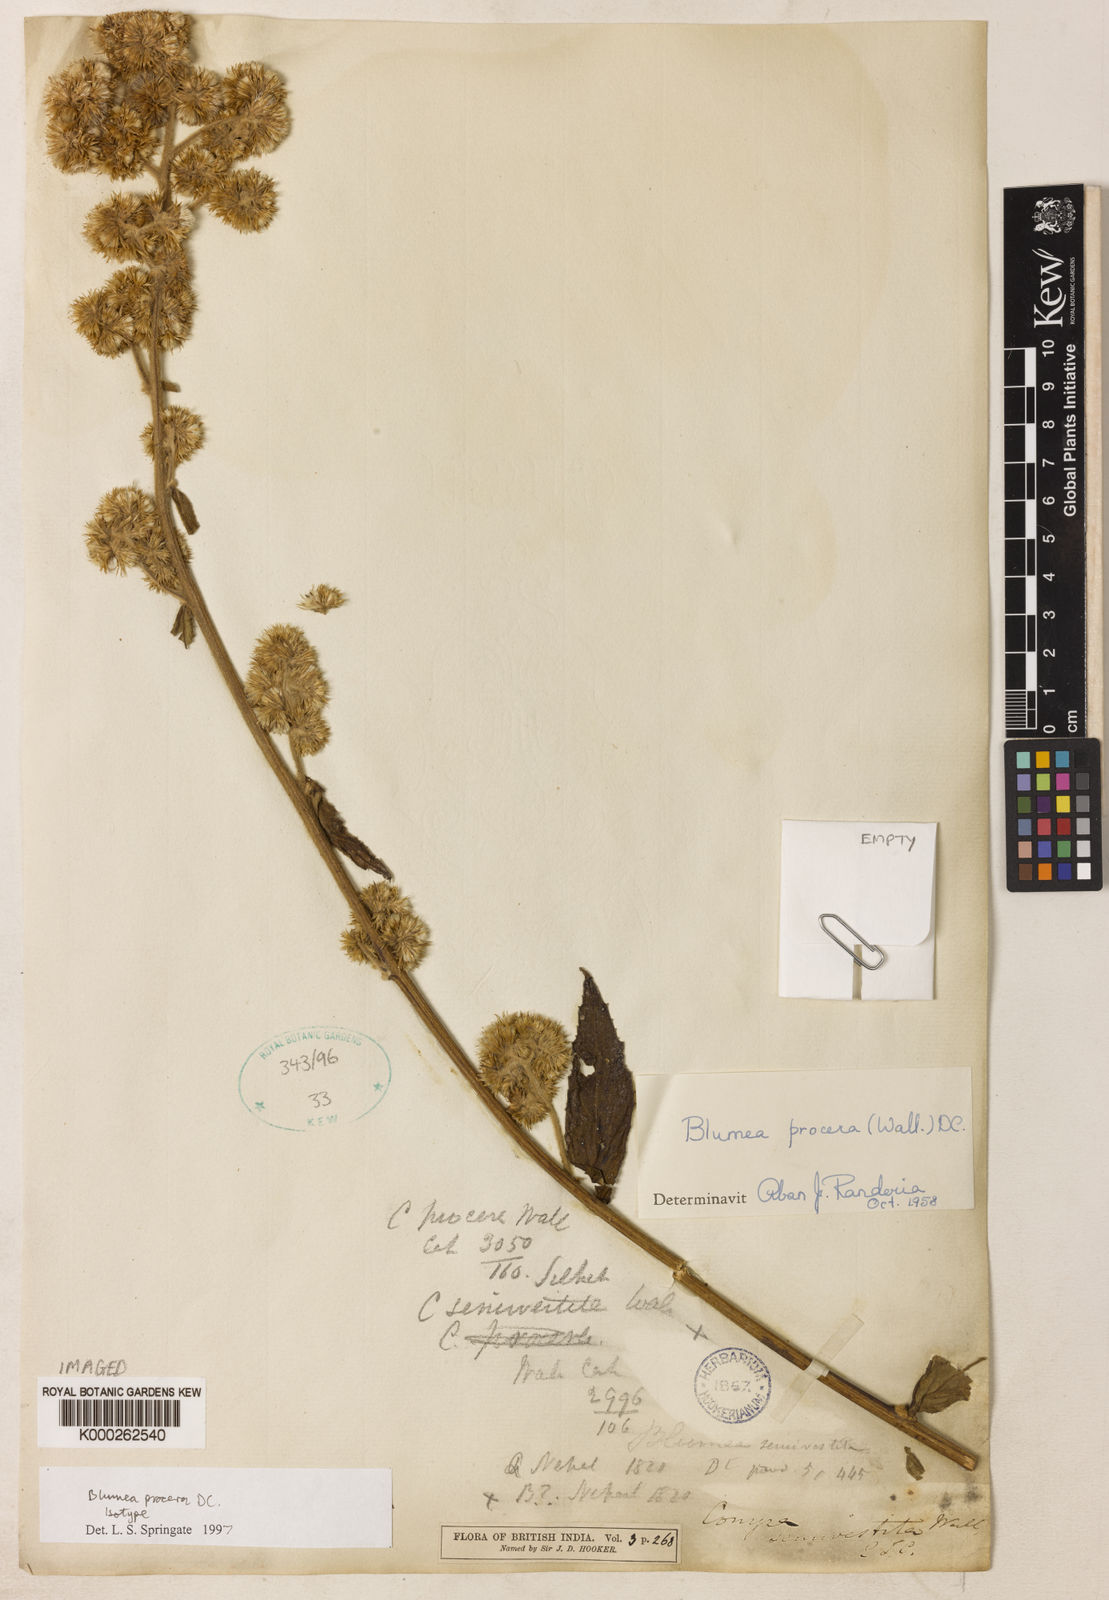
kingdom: Plantae
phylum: Tracheophyta
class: Magnoliopsida
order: Asterales
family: Asteraceae
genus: Blumea
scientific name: Blumea repanda
